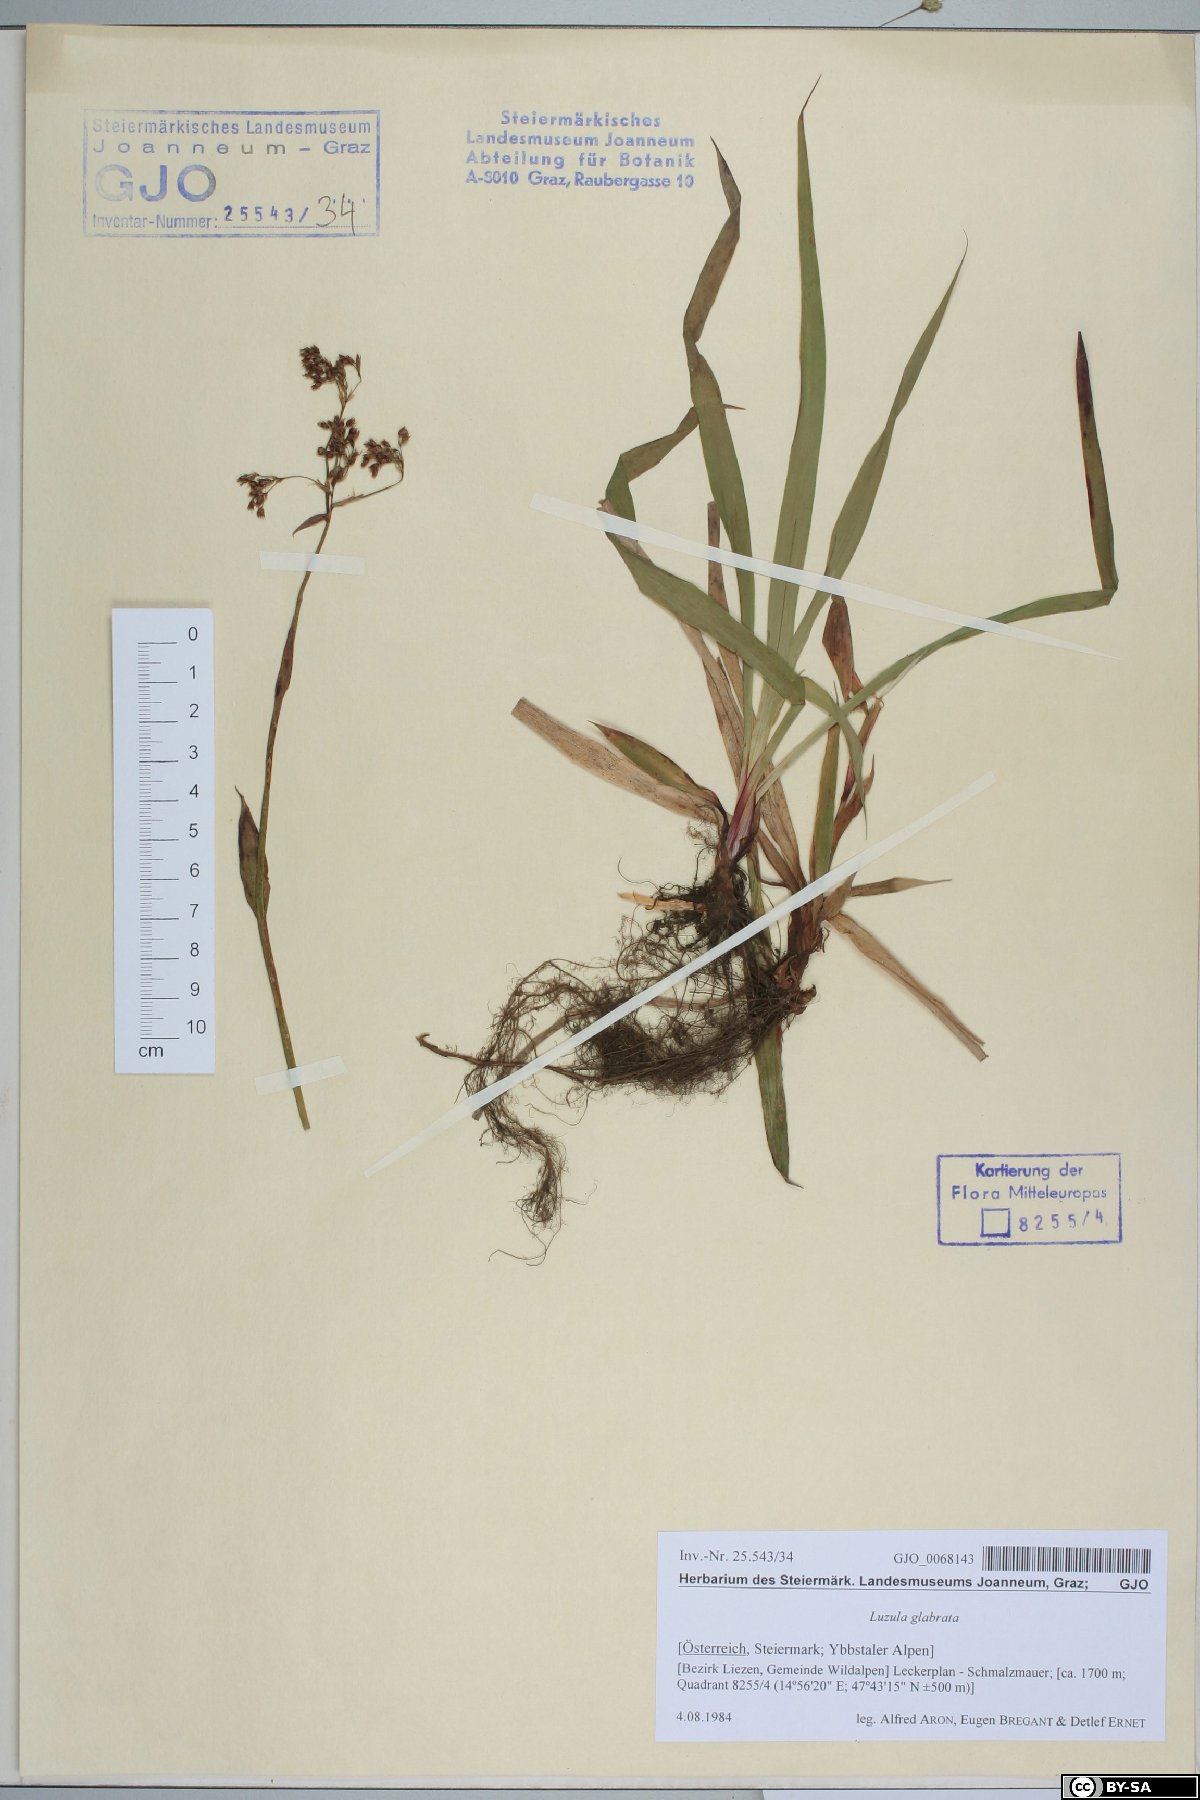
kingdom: Plantae
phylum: Tracheophyta
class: Liliopsida
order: Poales
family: Juncaceae
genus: Luzula
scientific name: Luzula glabrata
